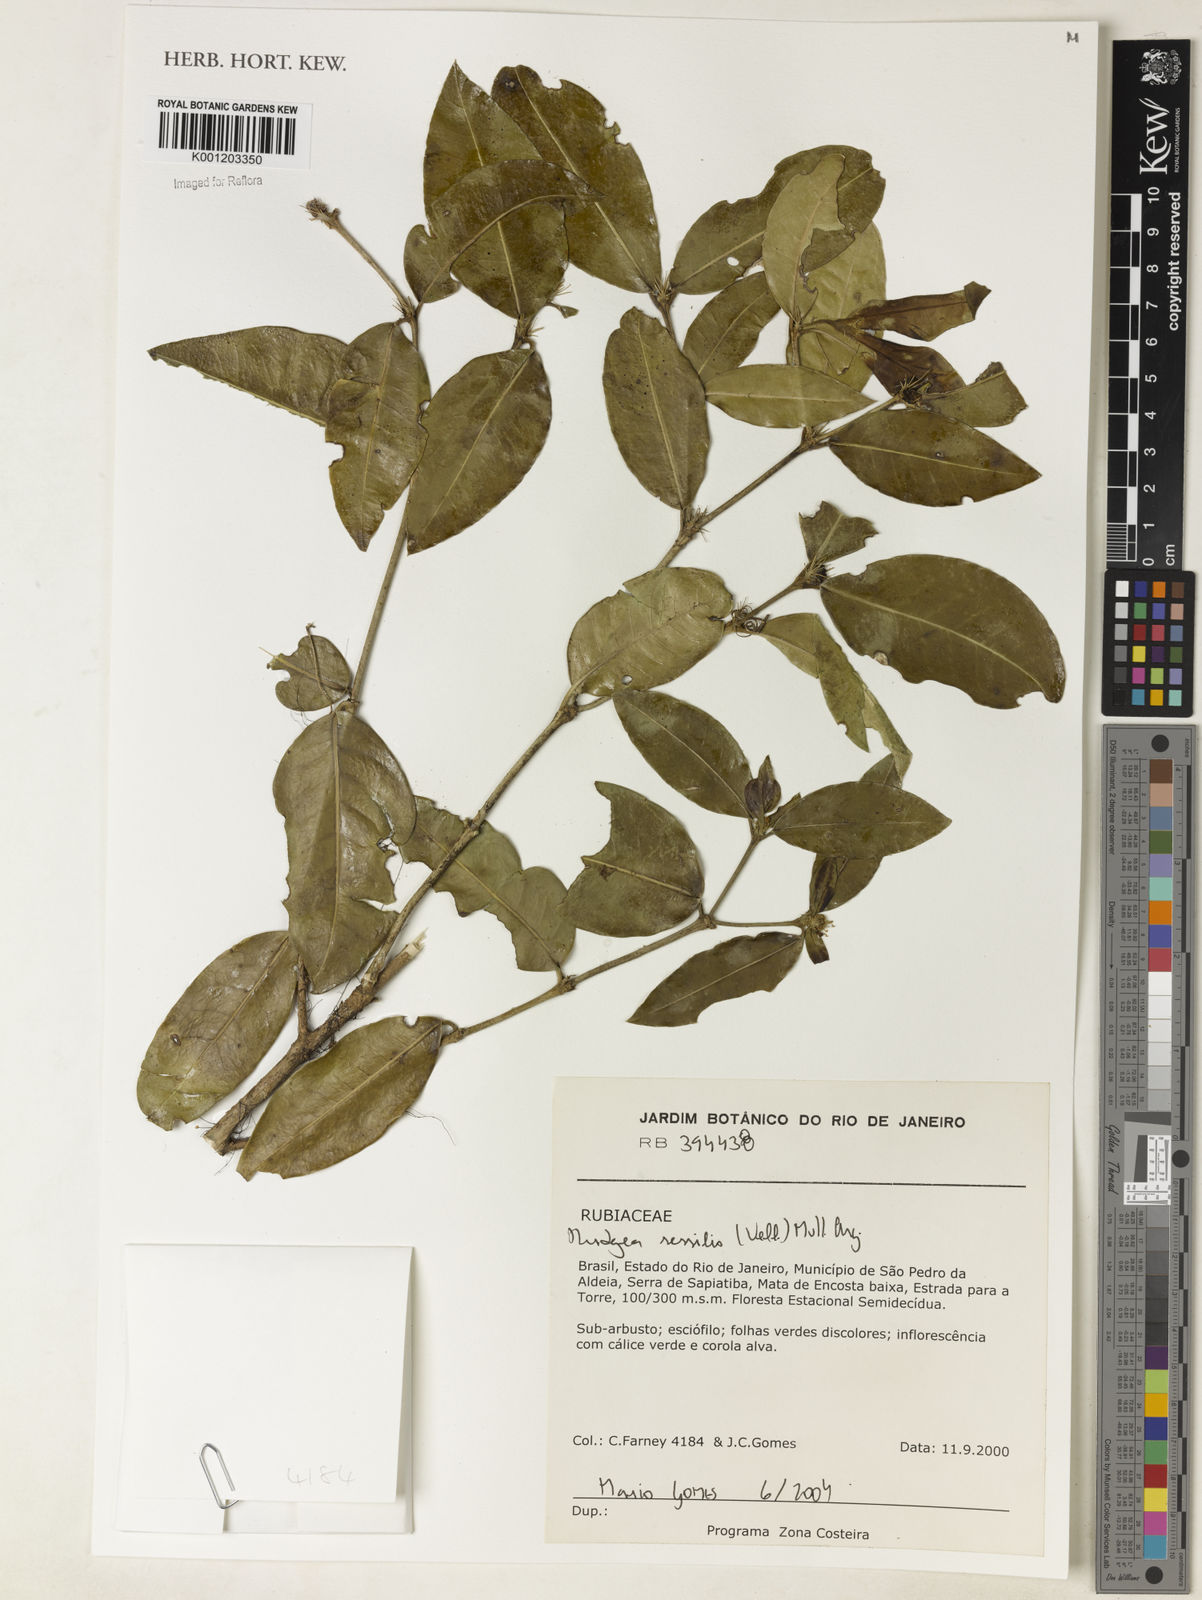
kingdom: Plantae
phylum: Tracheophyta
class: Magnoliopsida
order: Gentianales
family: Rubiaceae
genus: Rudgea
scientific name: Rudgea
